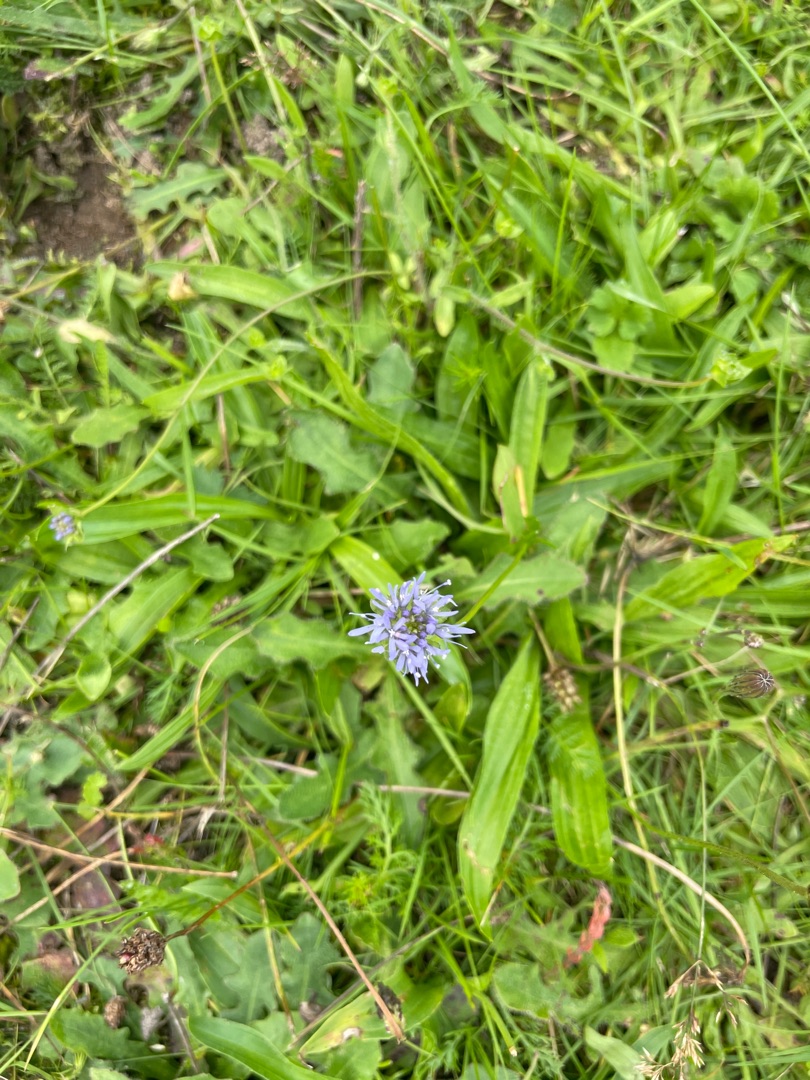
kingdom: Plantae
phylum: Tracheophyta
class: Magnoliopsida
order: Asterales
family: Campanulaceae
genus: Jasione
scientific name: Jasione montana
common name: Blåmunke
